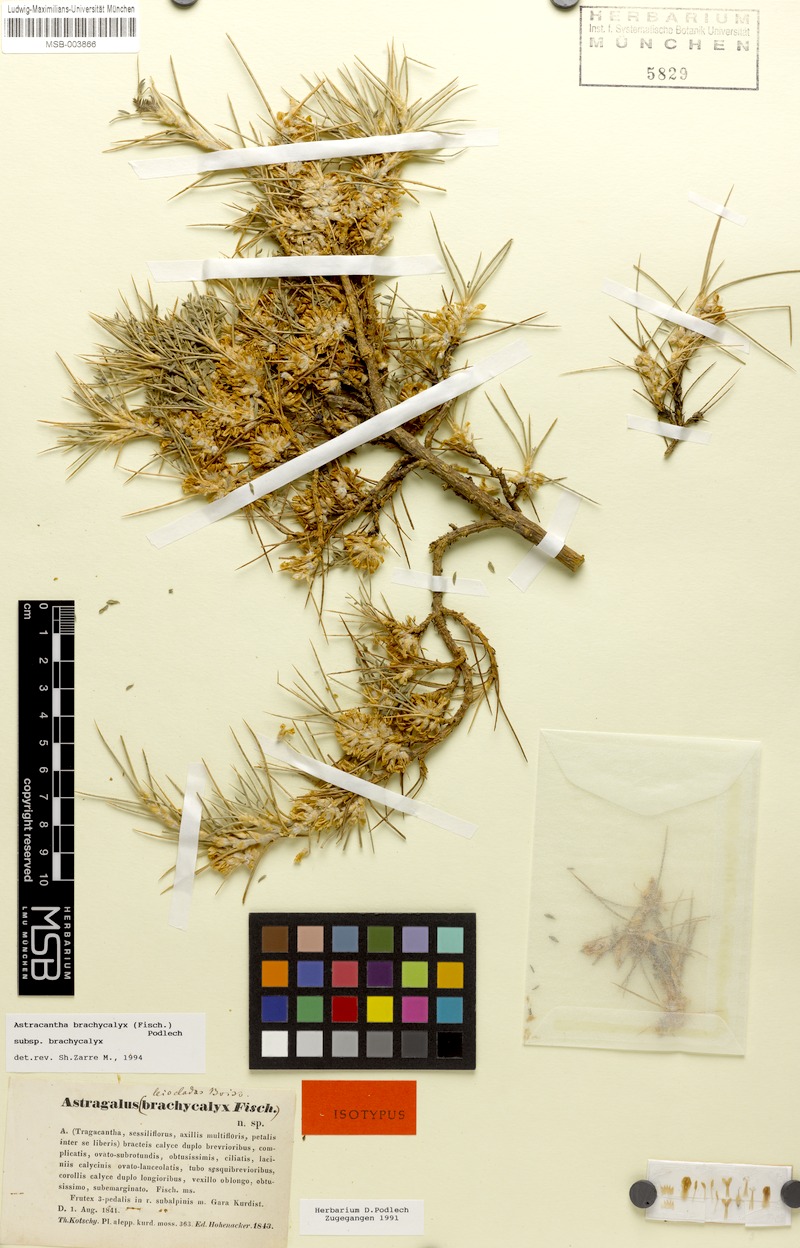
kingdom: Plantae
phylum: Tracheophyta
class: Magnoliopsida
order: Fabales
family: Fabaceae
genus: Astragalus
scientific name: Astragalus brachycalyx
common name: Persian manna
